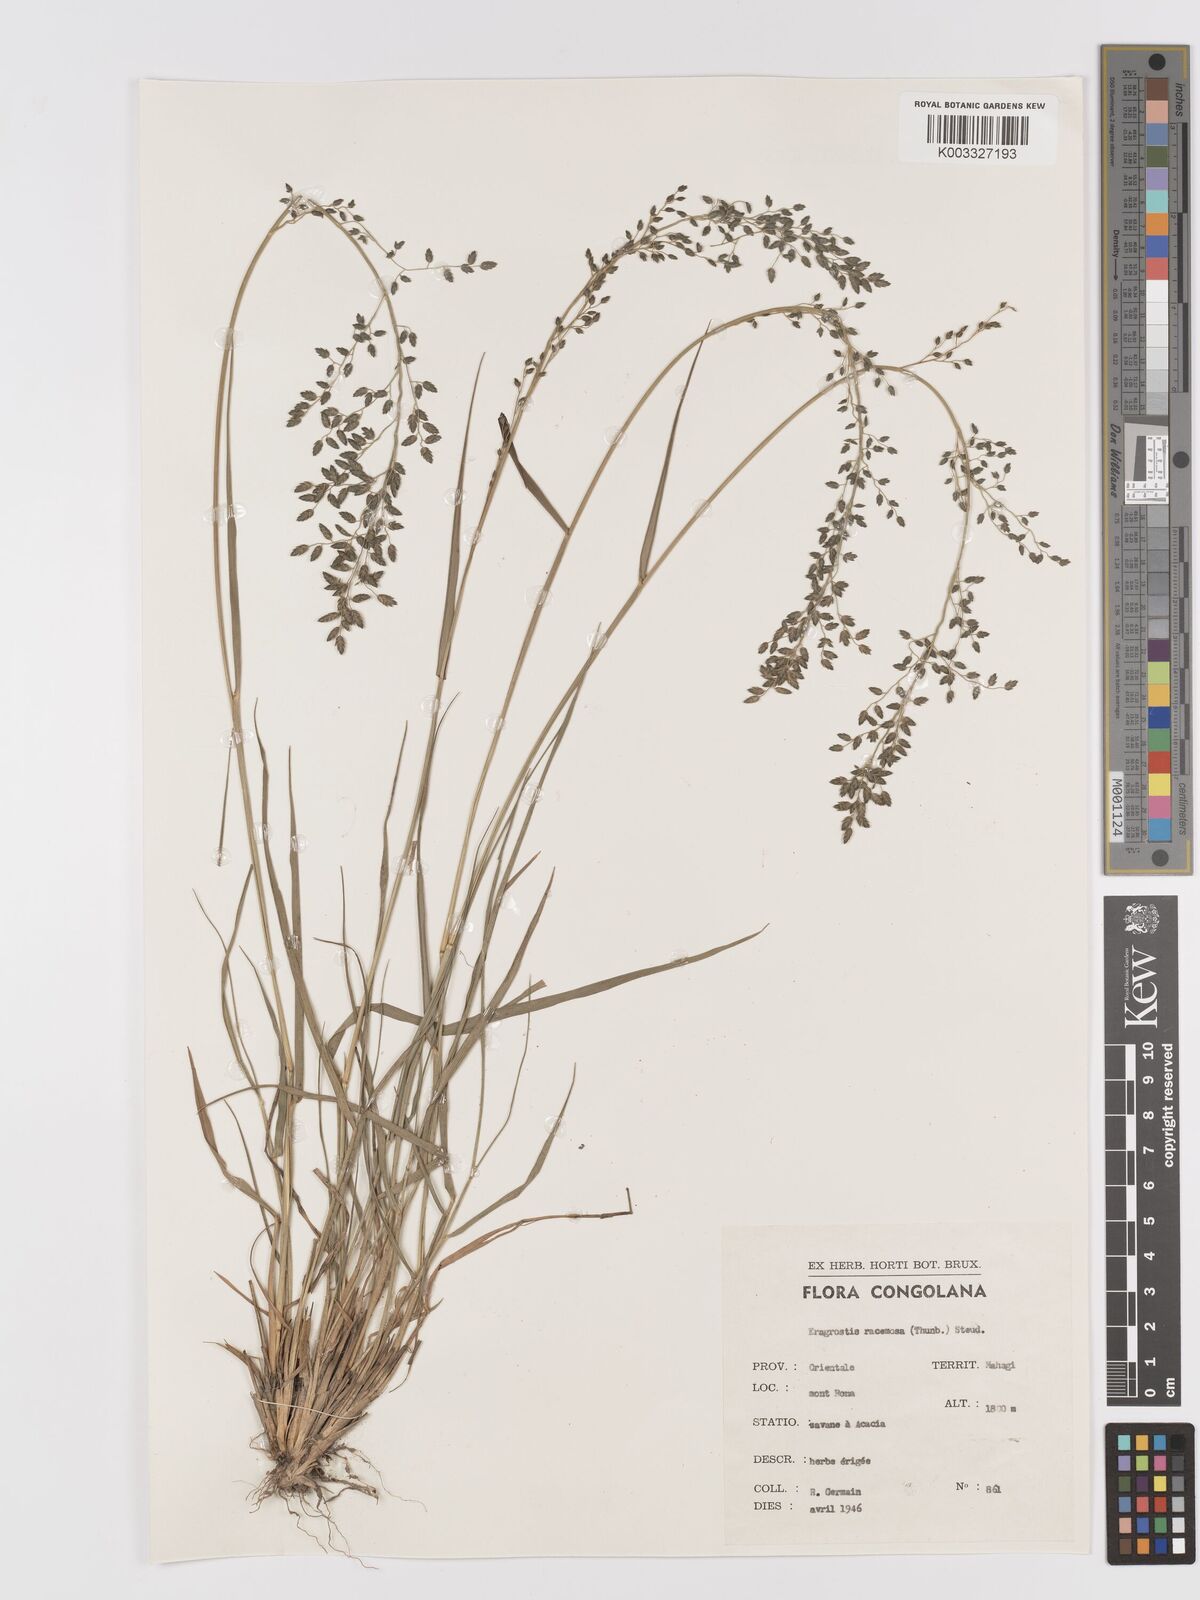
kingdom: Plantae
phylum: Tracheophyta
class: Liliopsida
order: Poales
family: Poaceae
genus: Eragrostis
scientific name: Eragrostis racemosa
